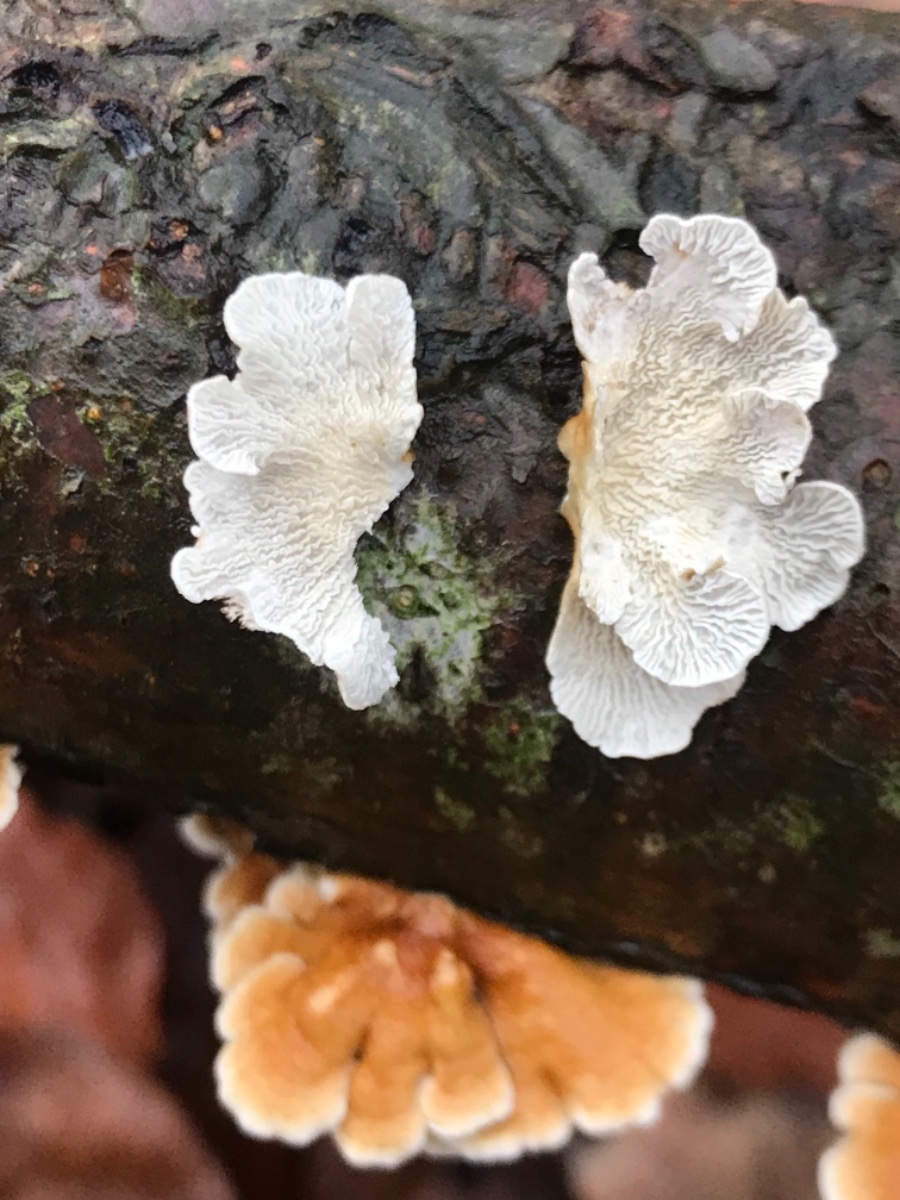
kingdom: Fungi
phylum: Basidiomycota
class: Agaricomycetes
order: Amylocorticiales
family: Amylocorticiaceae
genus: Plicaturopsis
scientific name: Plicaturopsis crispa
